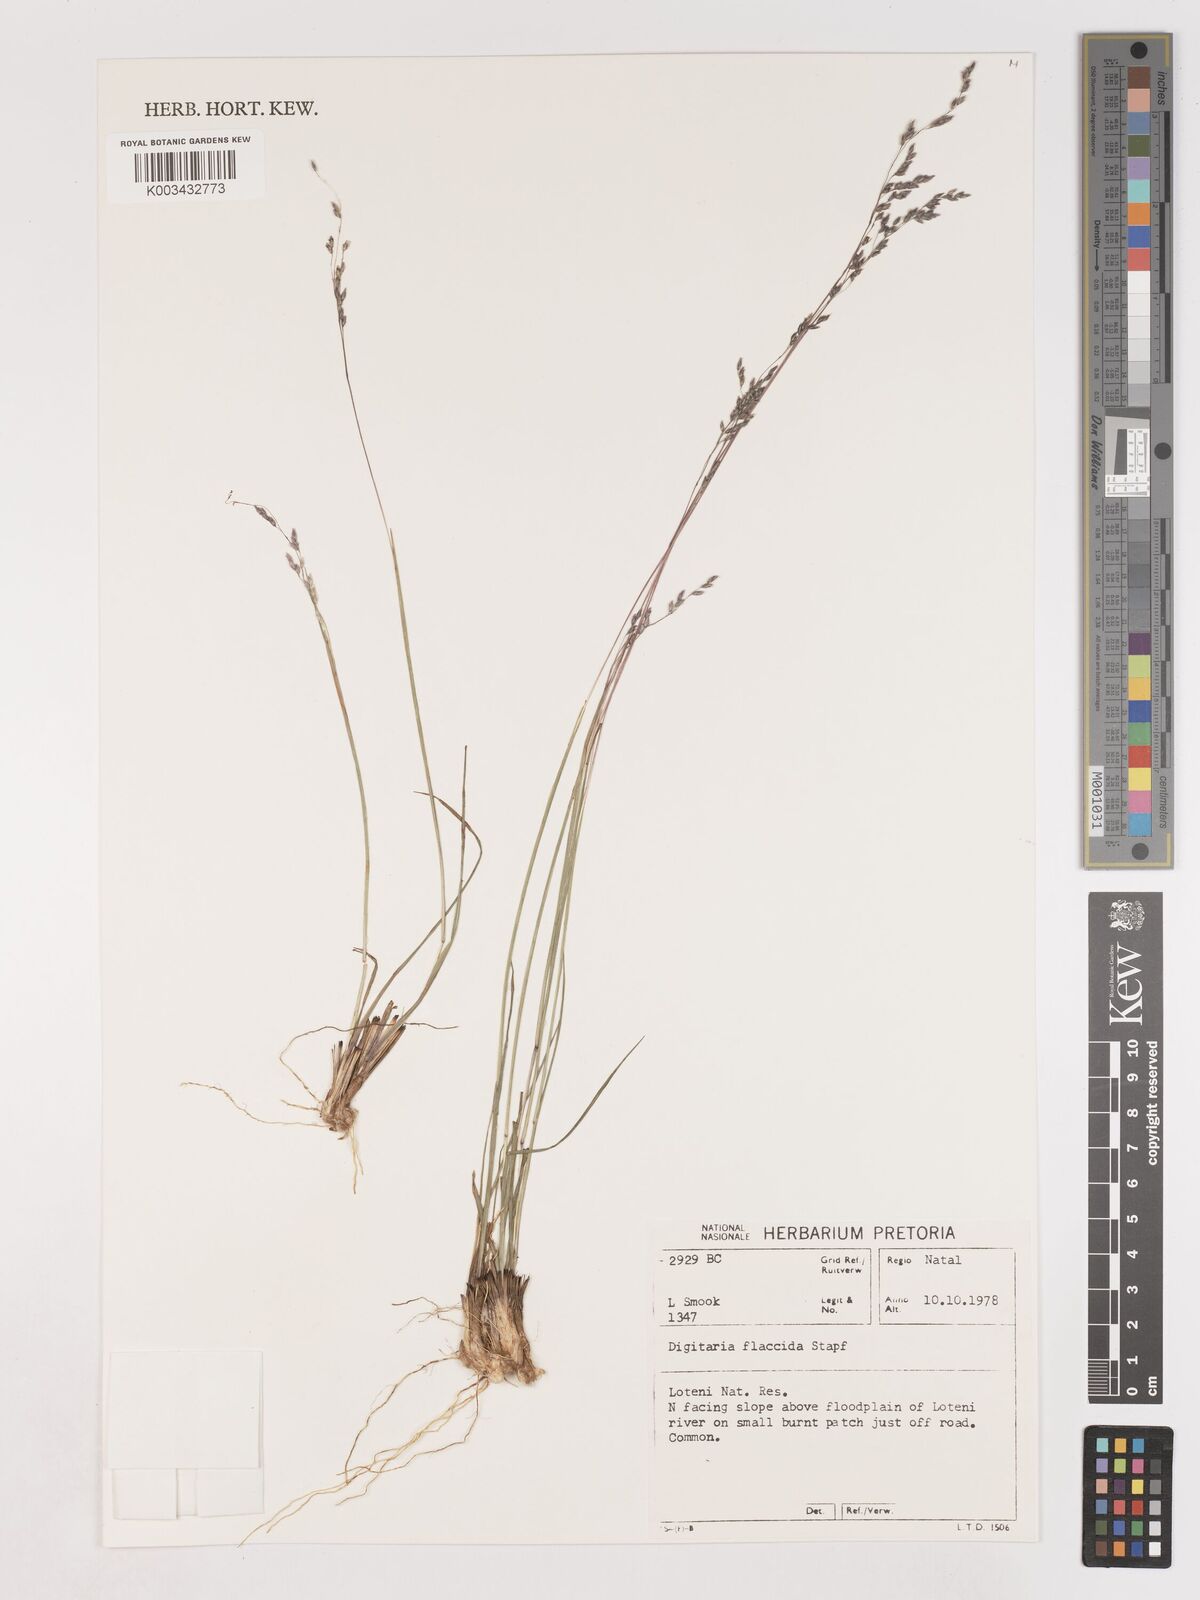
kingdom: Plantae
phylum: Tracheophyta
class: Liliopsida
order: Poales
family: Poaceae
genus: Digitaria
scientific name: Digitaria flaccida
